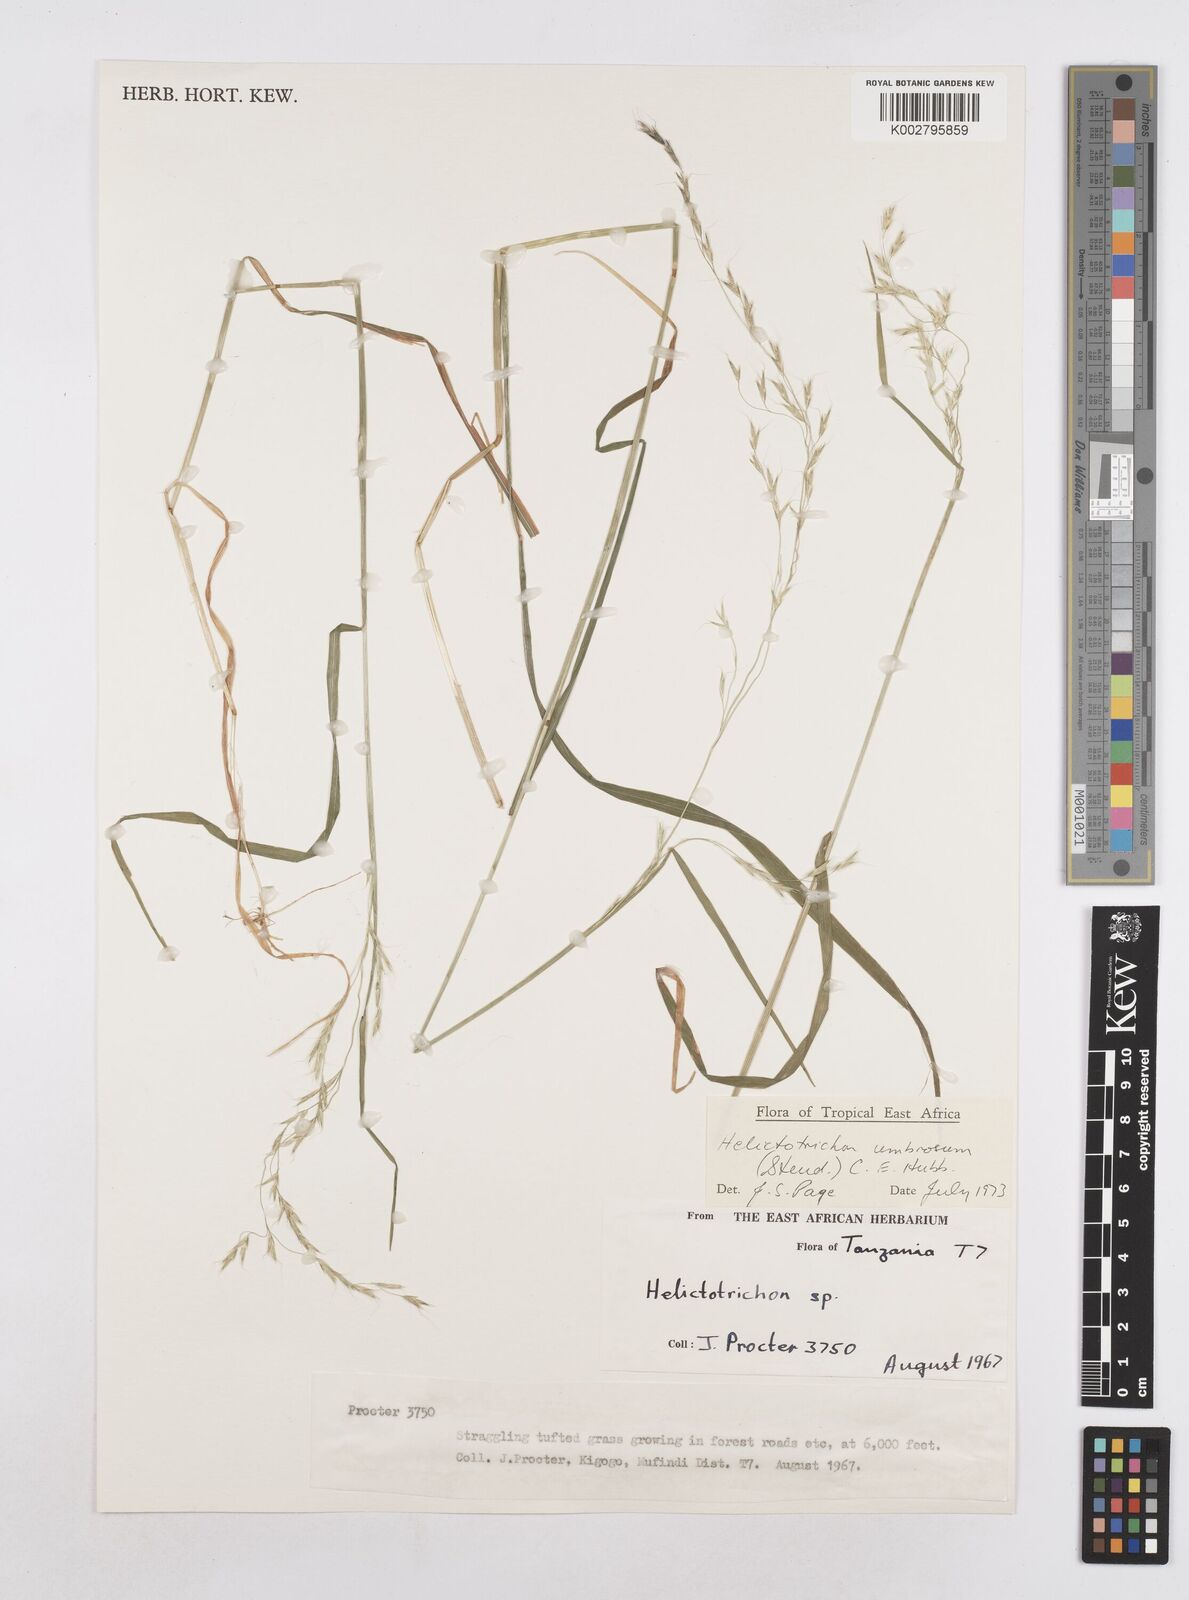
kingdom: Plantae
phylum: Tracheophyta
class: Liliopsida
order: Poales
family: Poaceae
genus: Trisetopsis
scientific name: Trisetopsis umbrosa
